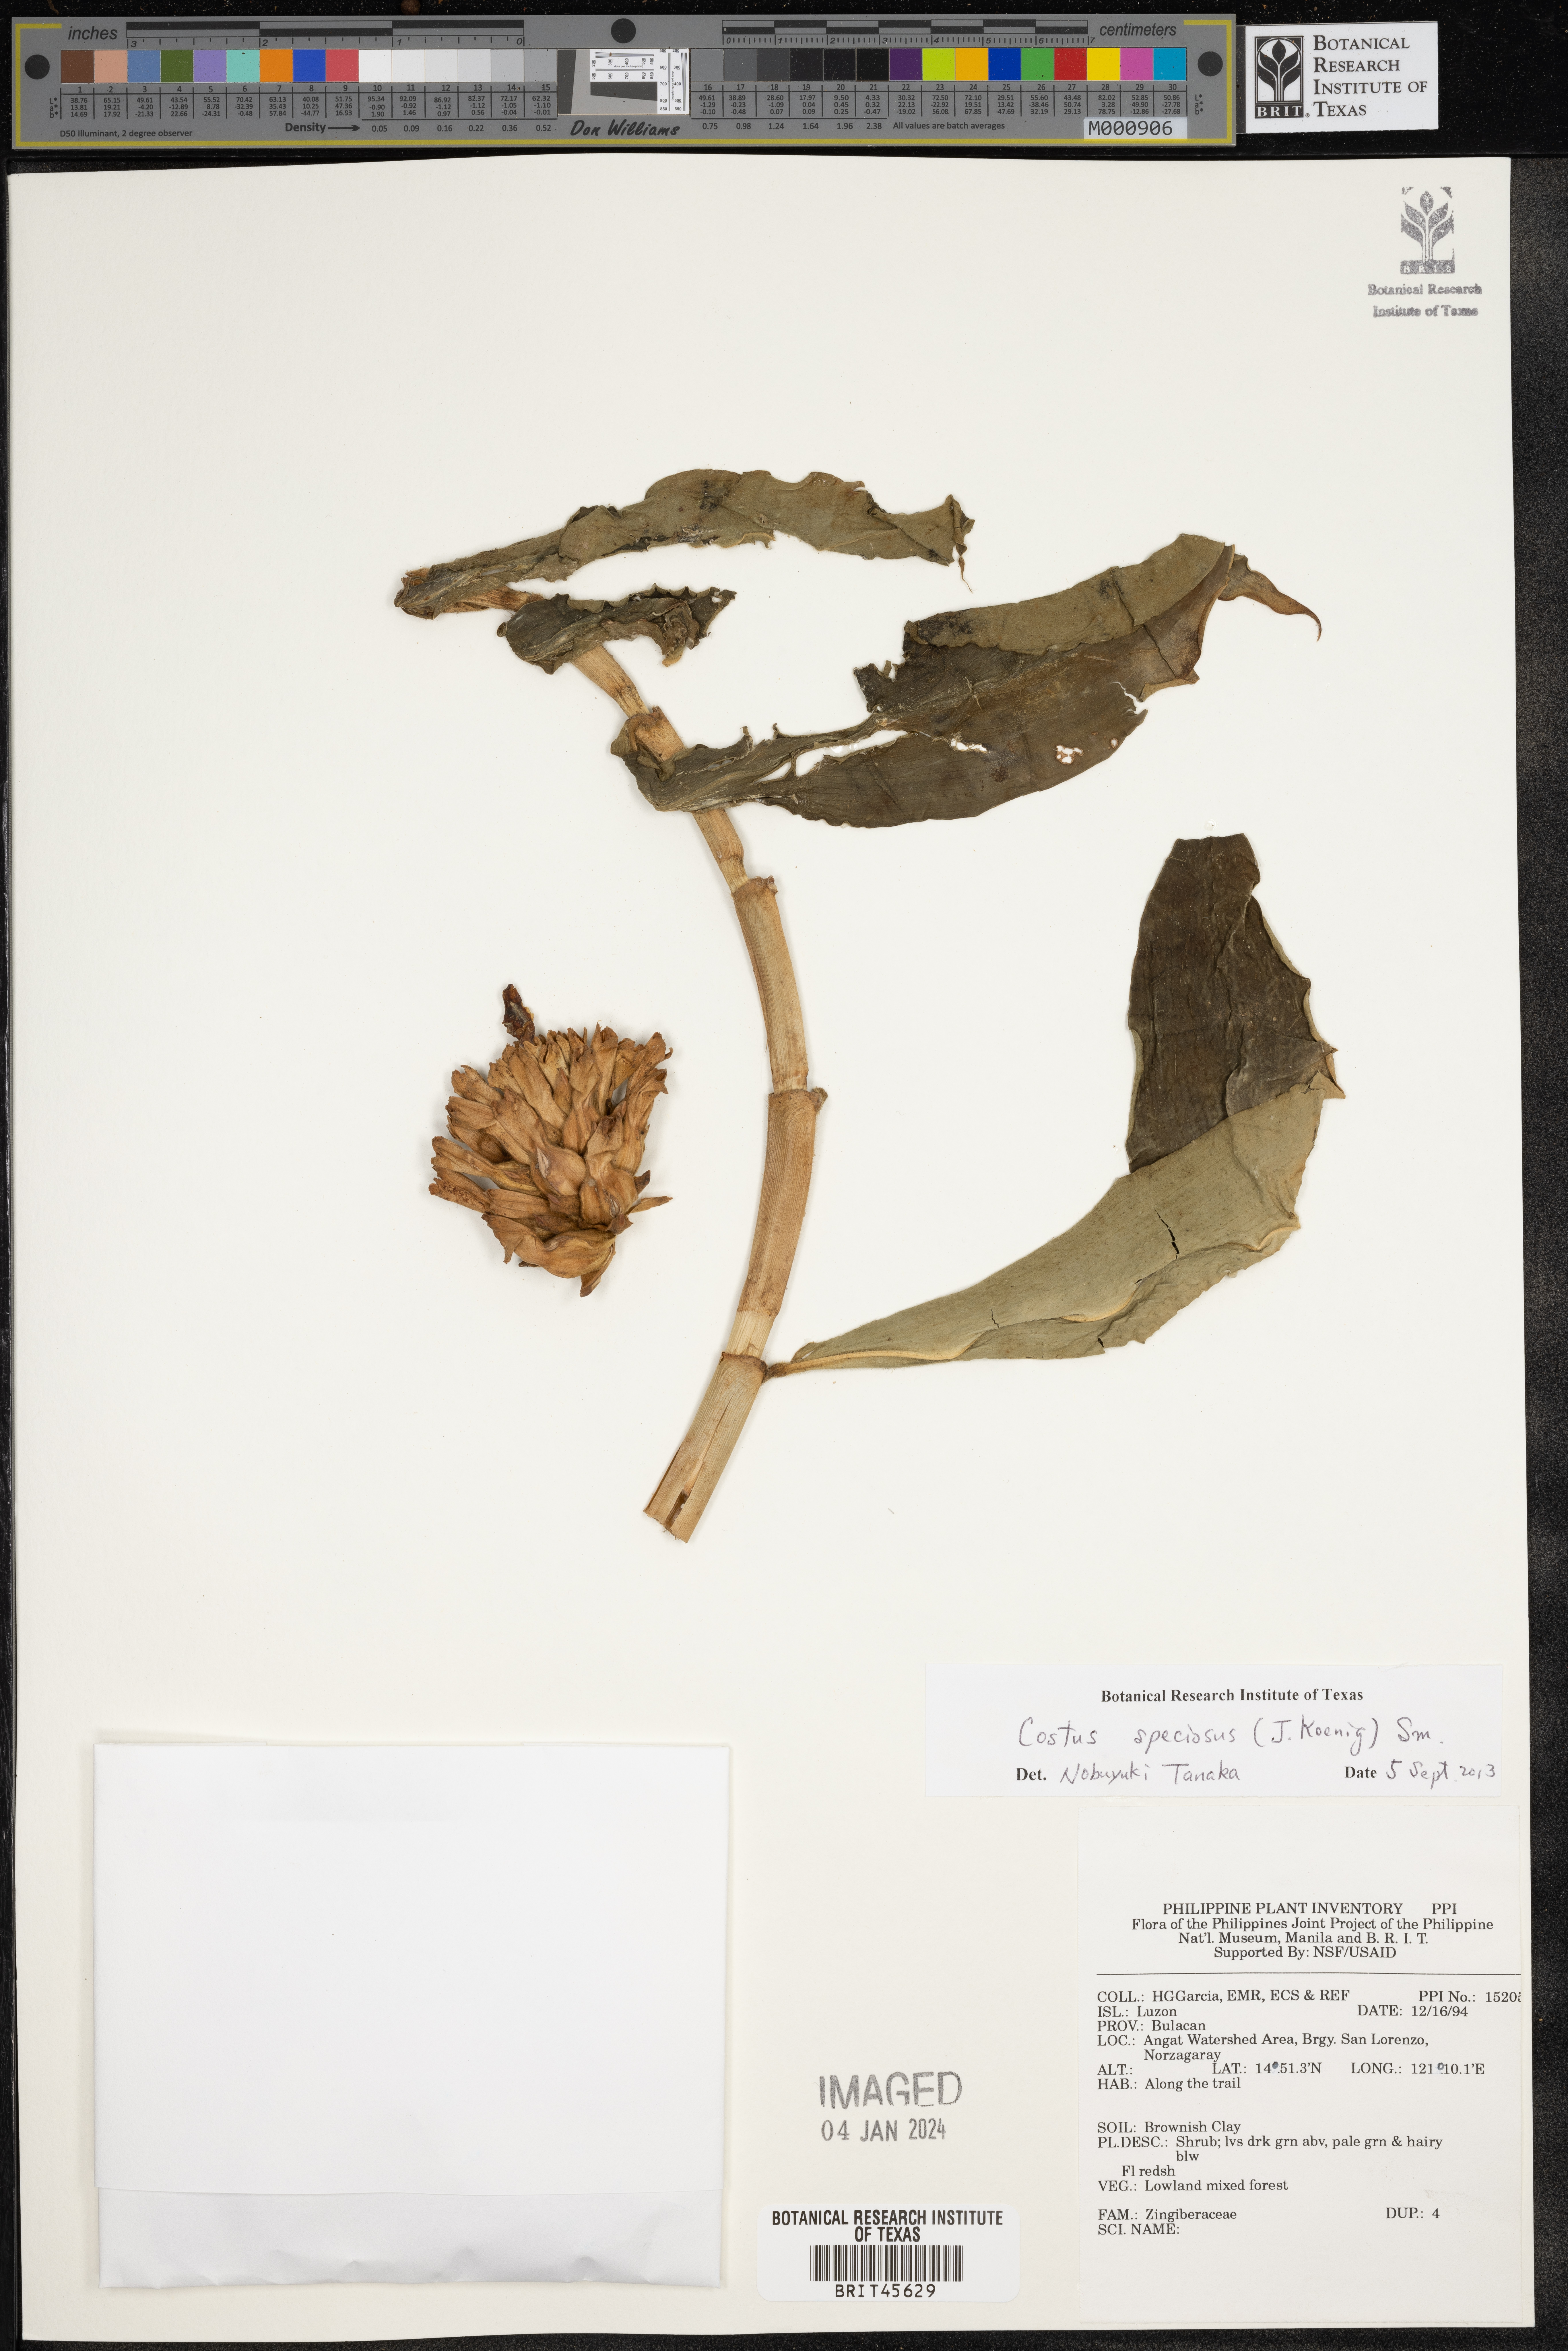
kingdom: Plantae
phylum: Tracheophyta
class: Liliopsida
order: Zingiberales
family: Zingiberaceae
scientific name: Zingiberaceae
